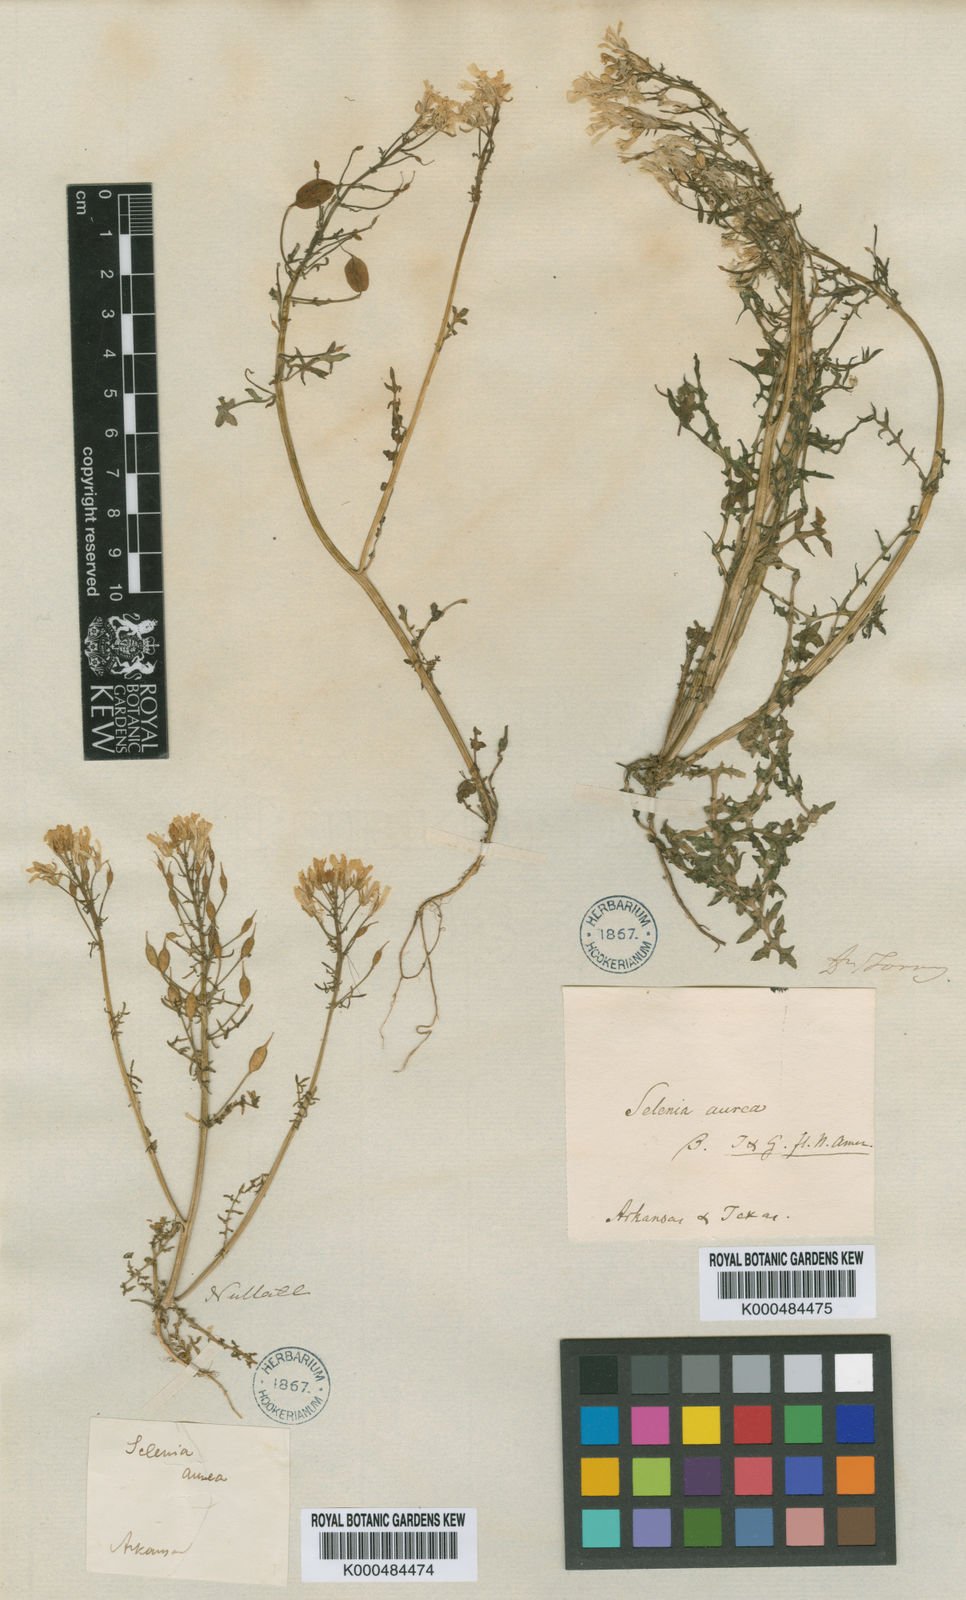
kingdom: Plantae
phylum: Tracheophyta
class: Magnoliopsida
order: Brassicales
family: Brassicaceae
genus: Selenia
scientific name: Selenia aurea
